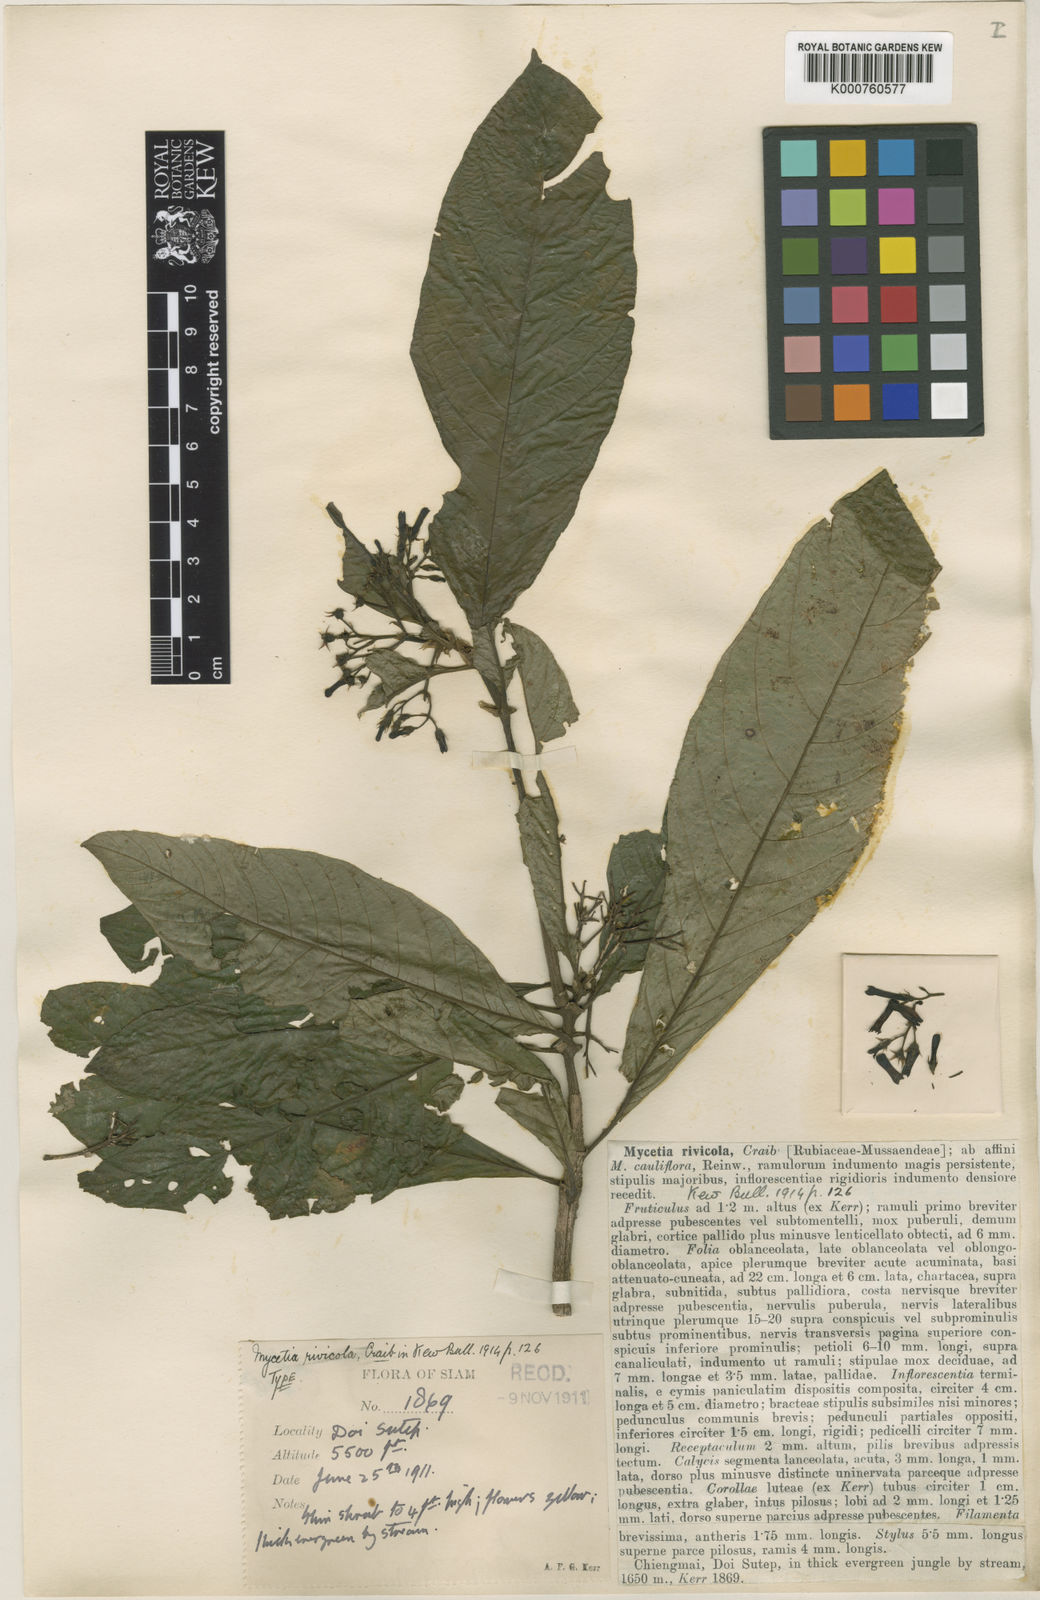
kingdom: Plantae
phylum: Tracheophyta
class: Magnoliopsida
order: Gentianales
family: Rubiaceae
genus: Mycetia
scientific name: Mycetia rivicola
